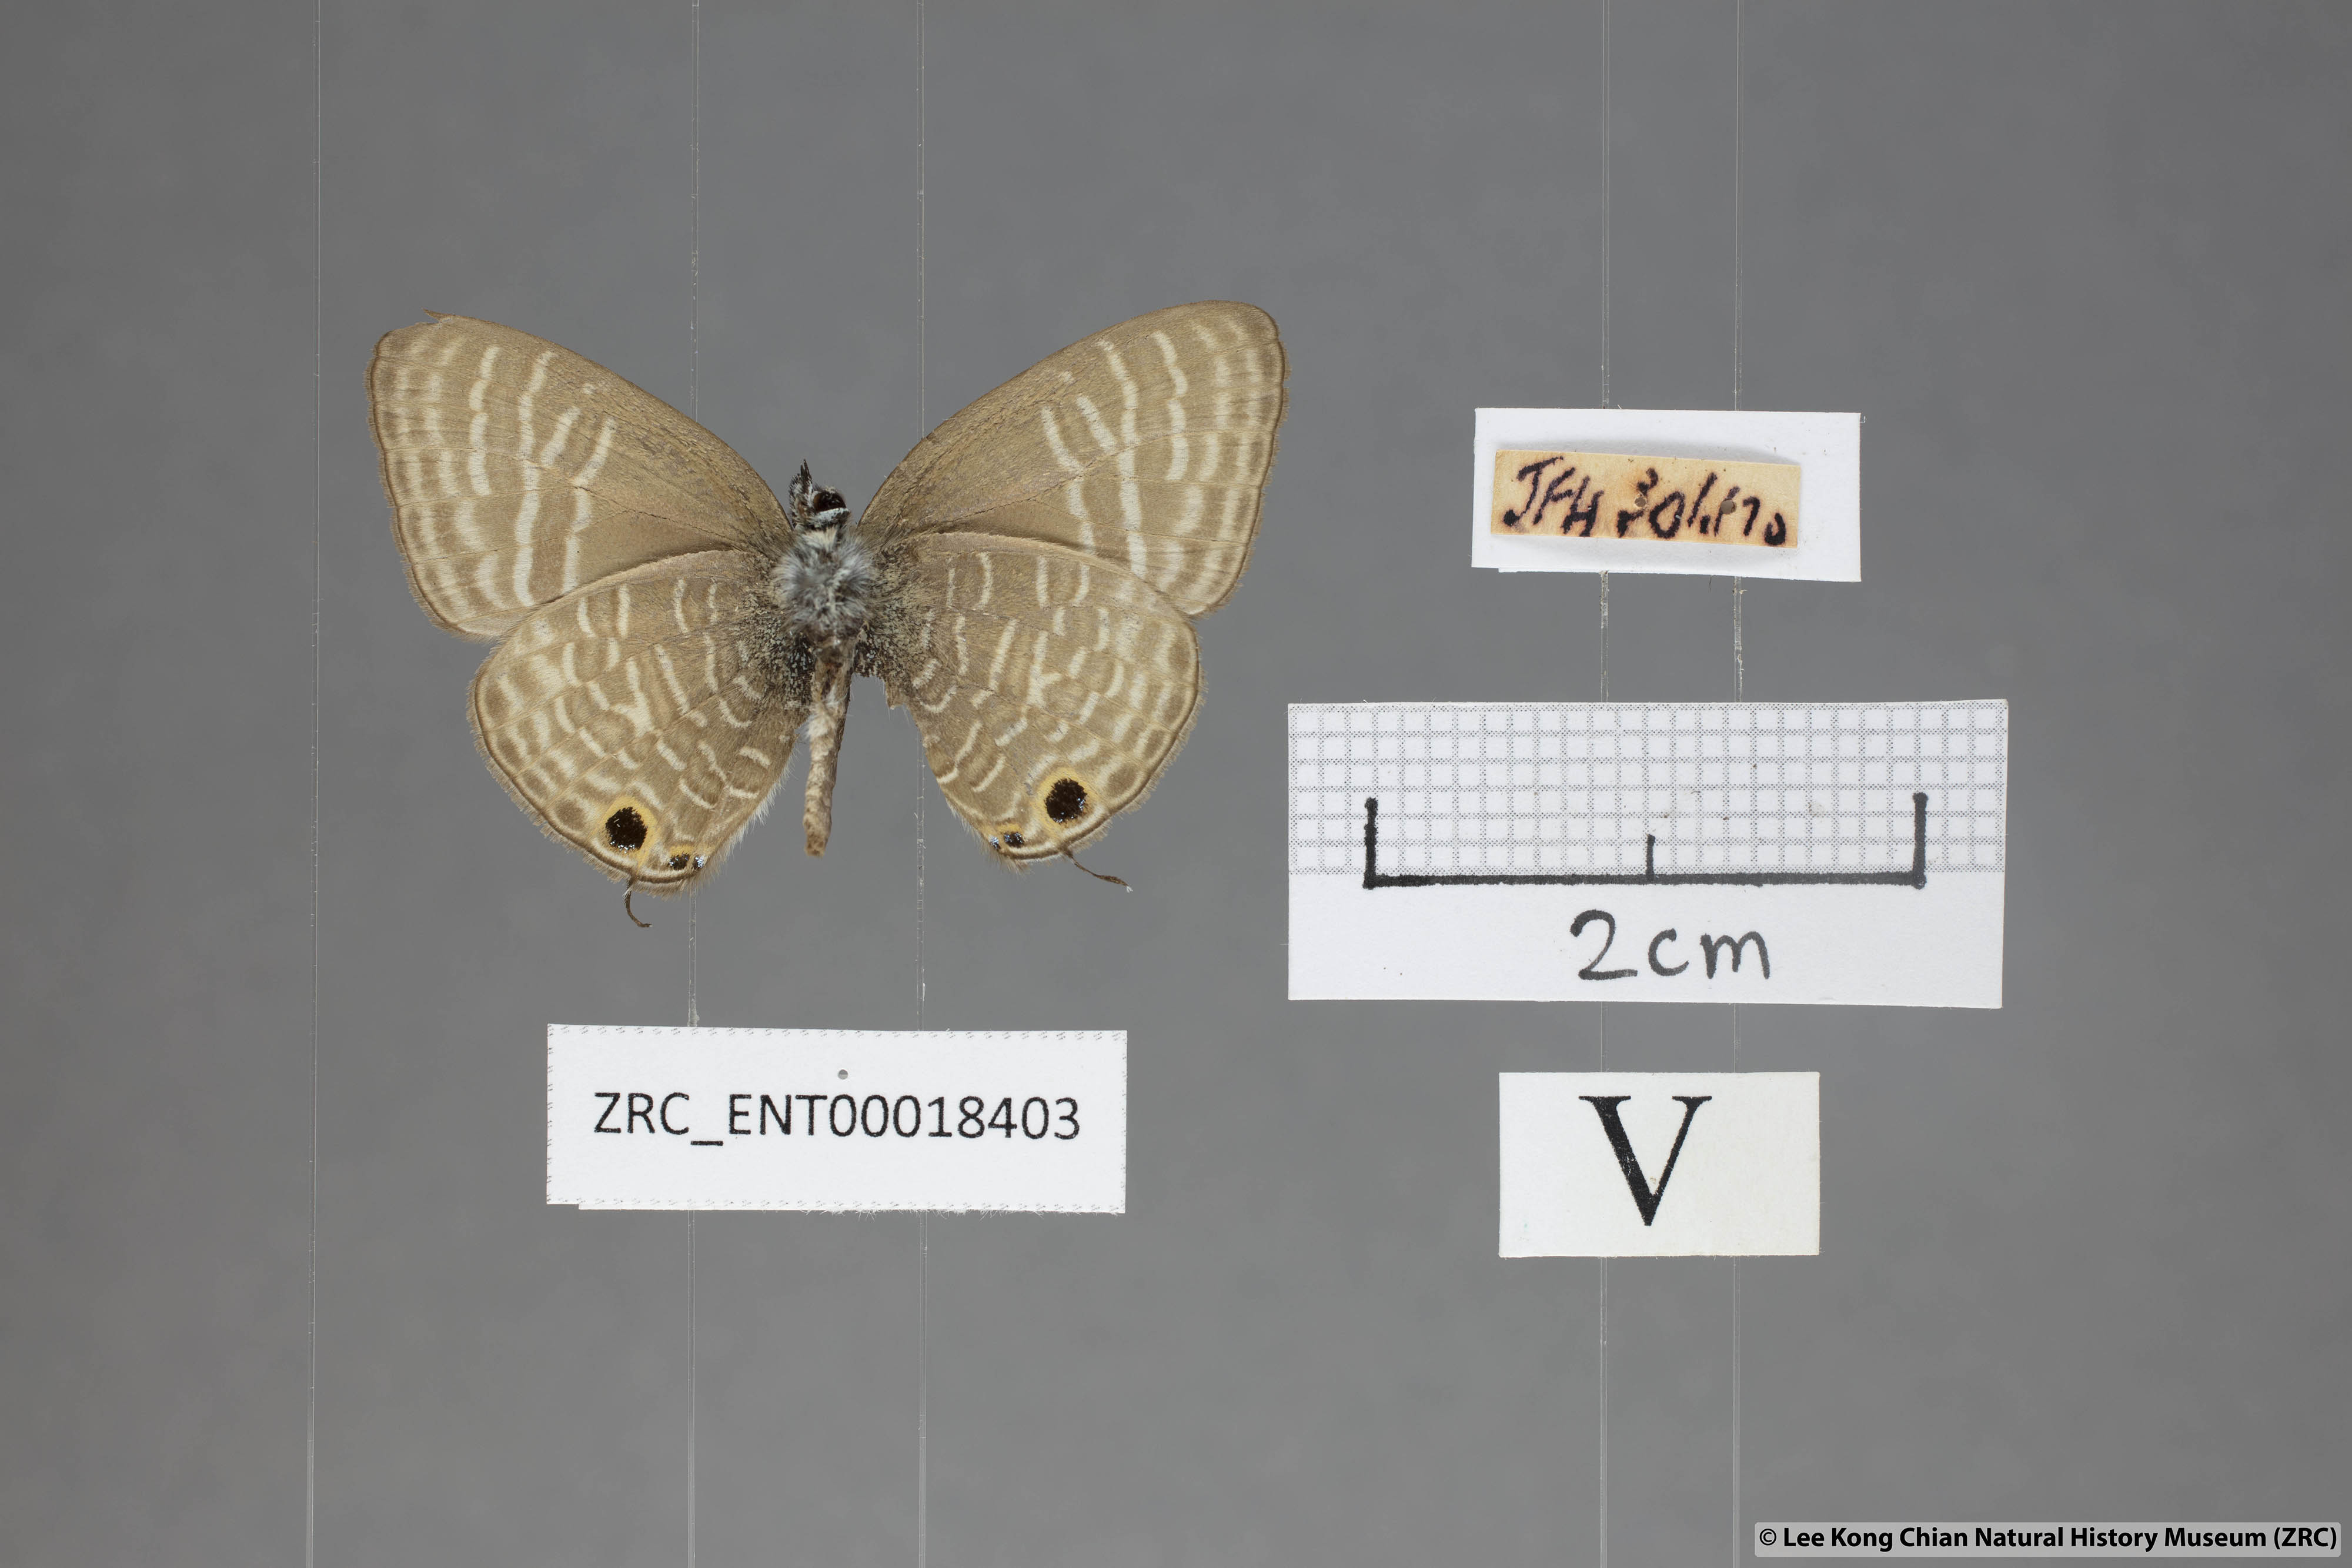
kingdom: Animalia
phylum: Arthropoda
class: Insecta
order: Lepidoptera
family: Lycaenidae
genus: Nacaduba
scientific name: Nacaduba pactolus
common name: Large fourline blue
